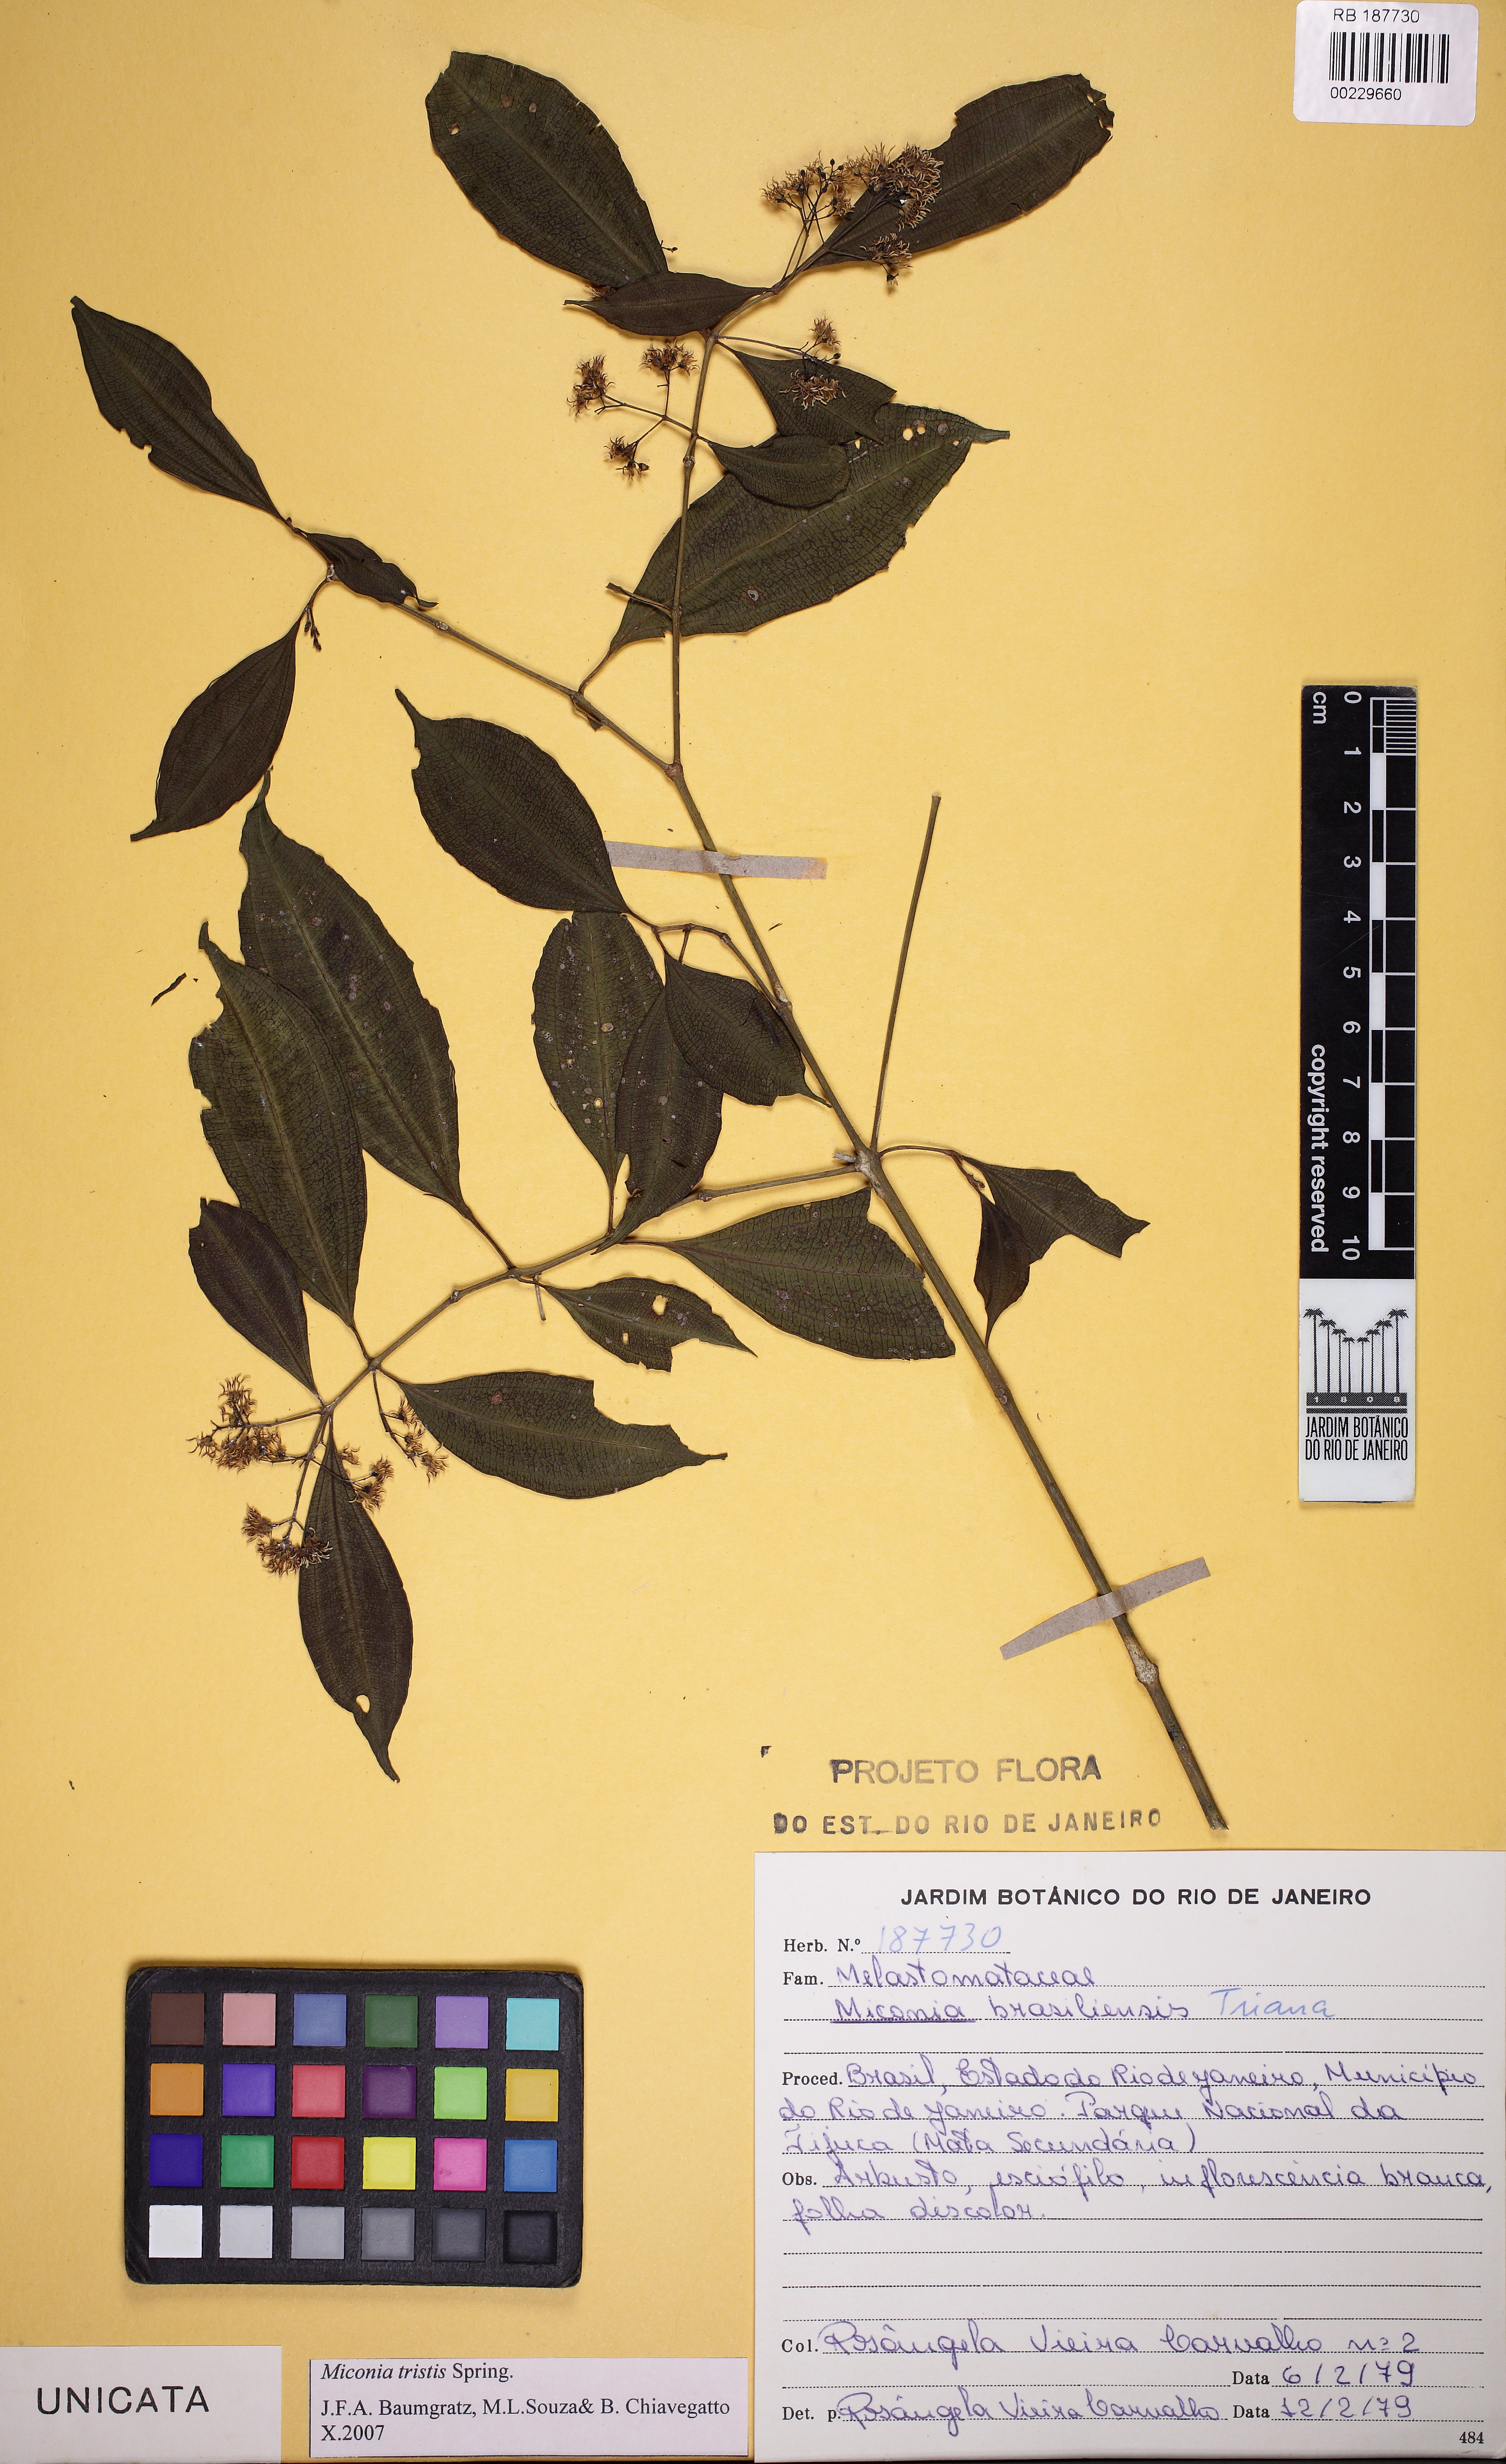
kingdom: Plantae
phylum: Tracheophyta
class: Magnoliopsida
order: Myrtales
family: Melastomataceae
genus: Miconia
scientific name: Miconia tristis
